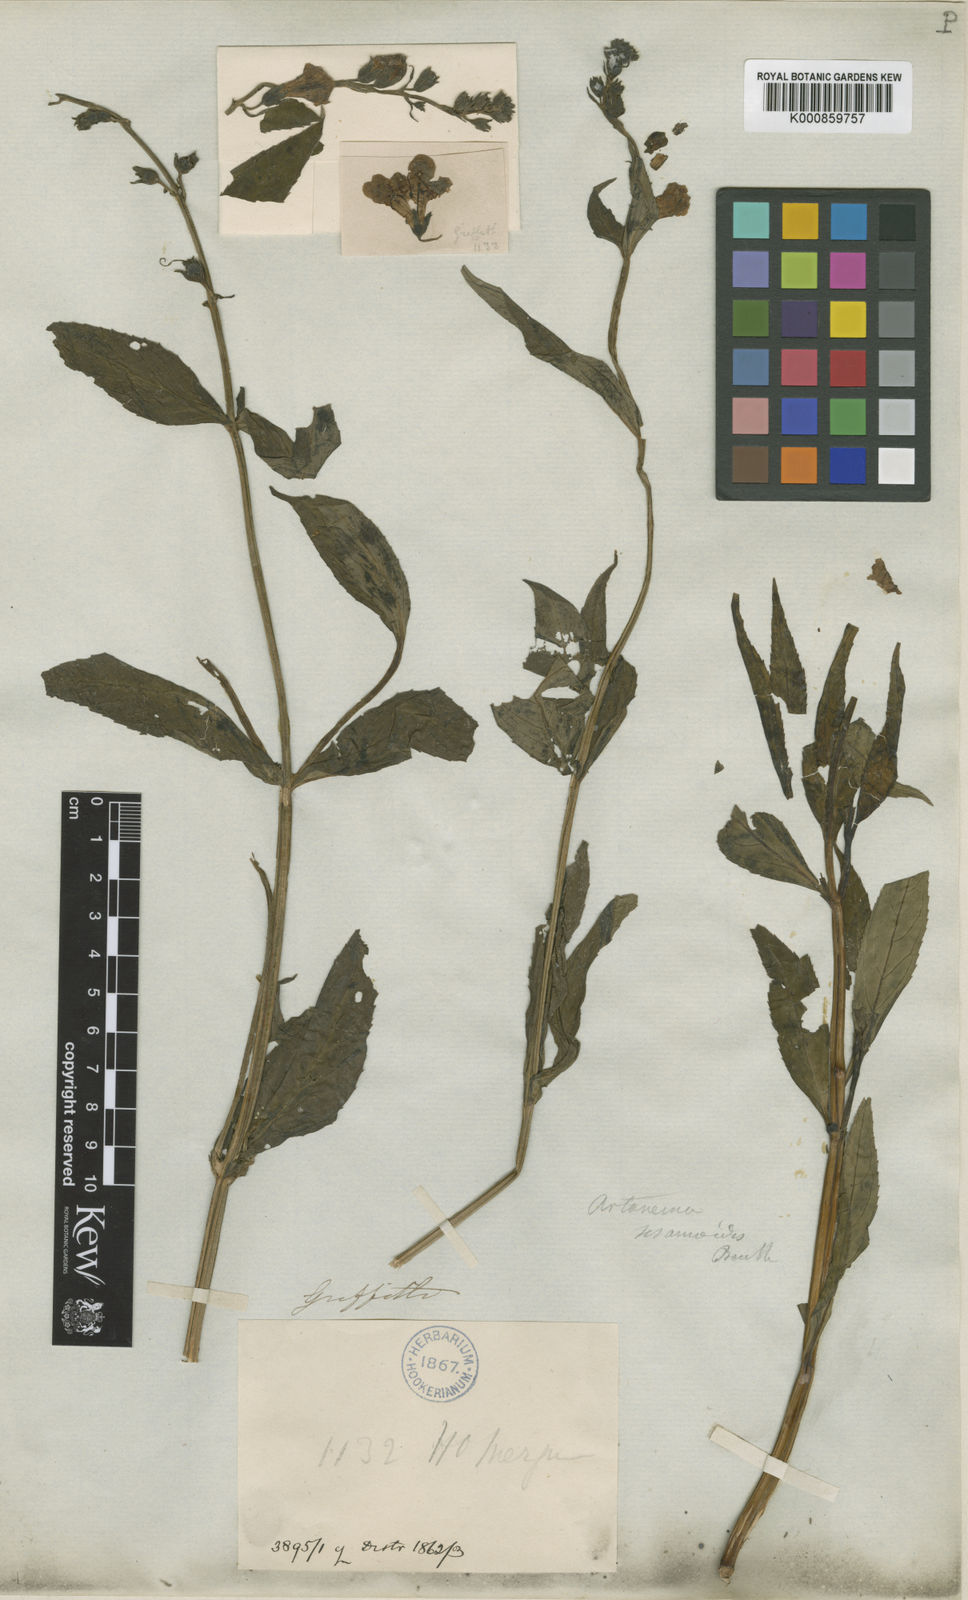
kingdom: Plantae
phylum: Tracheophyta
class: Magnoliopsida
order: Lamiales
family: Linderniaceae
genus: Artanema
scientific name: Artanema longifolium
